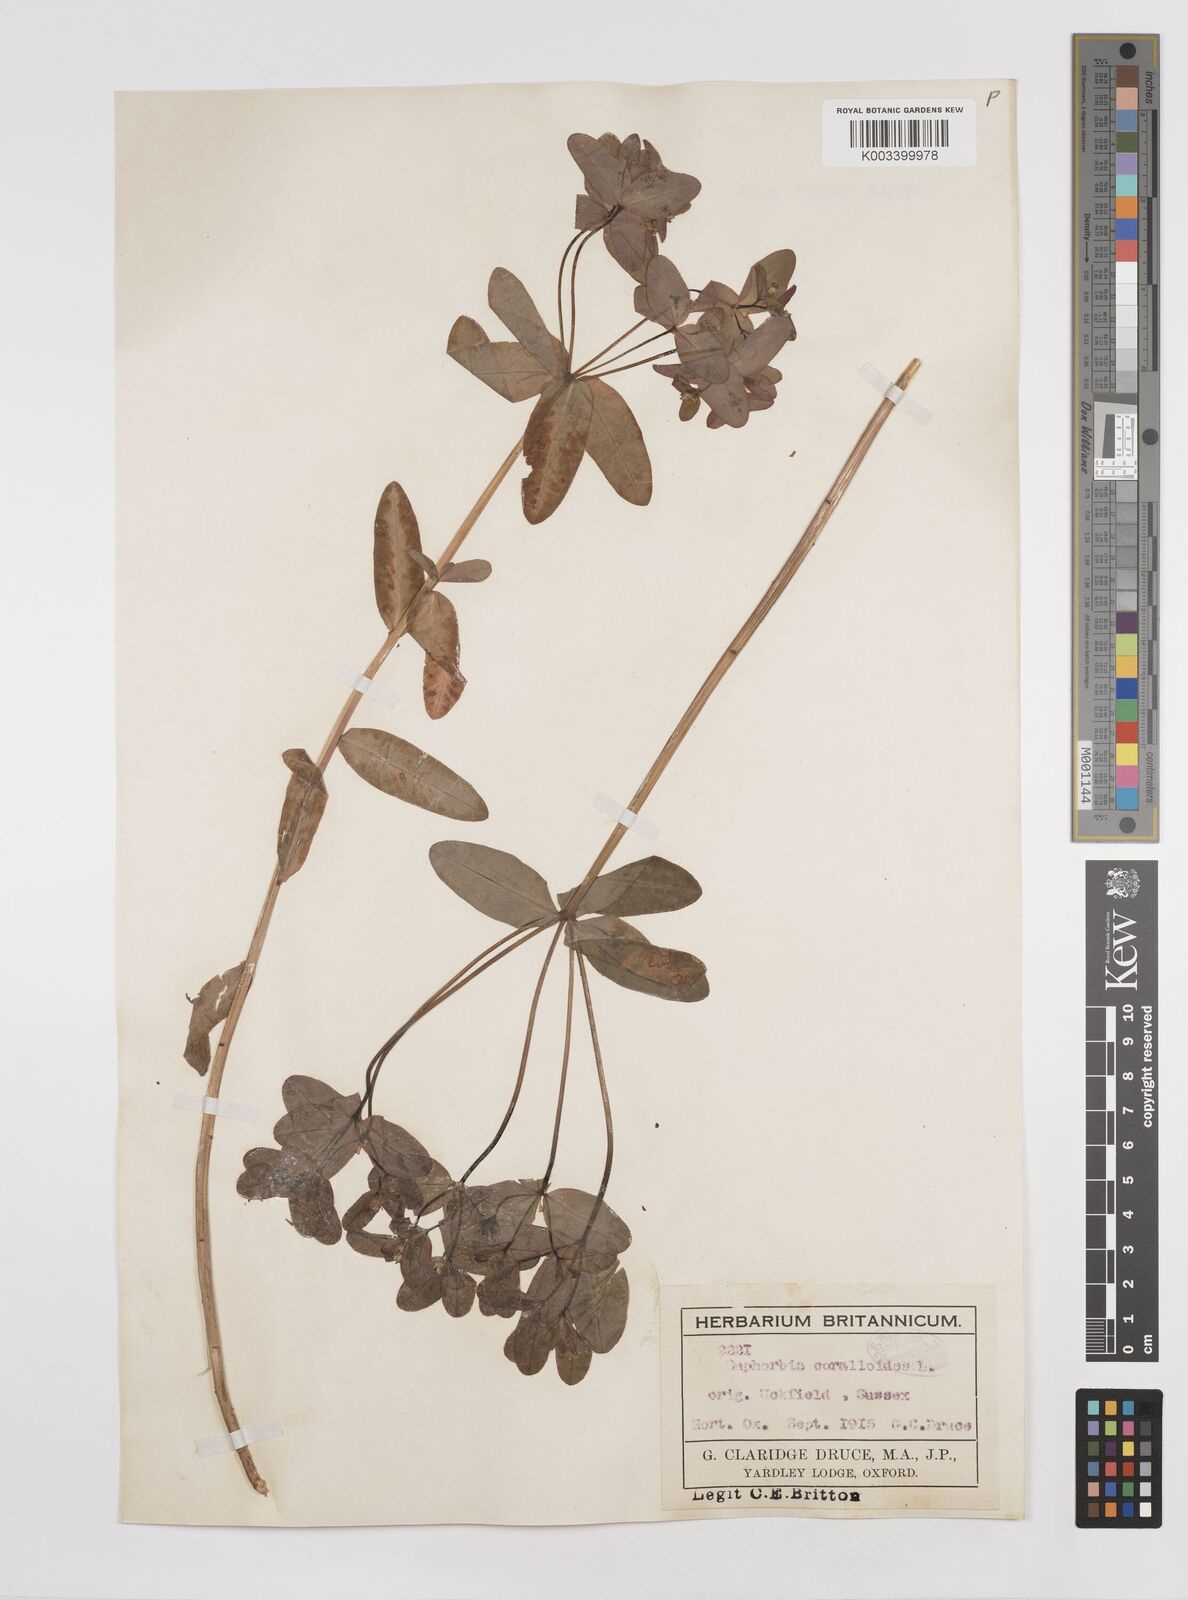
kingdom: Plantae
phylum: Tracheophyta
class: Magnoliopsida
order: Malpighiales
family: Euphorbiaceae
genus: Euphorbia
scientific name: Euphorbia corallioides
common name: Coral spurge
